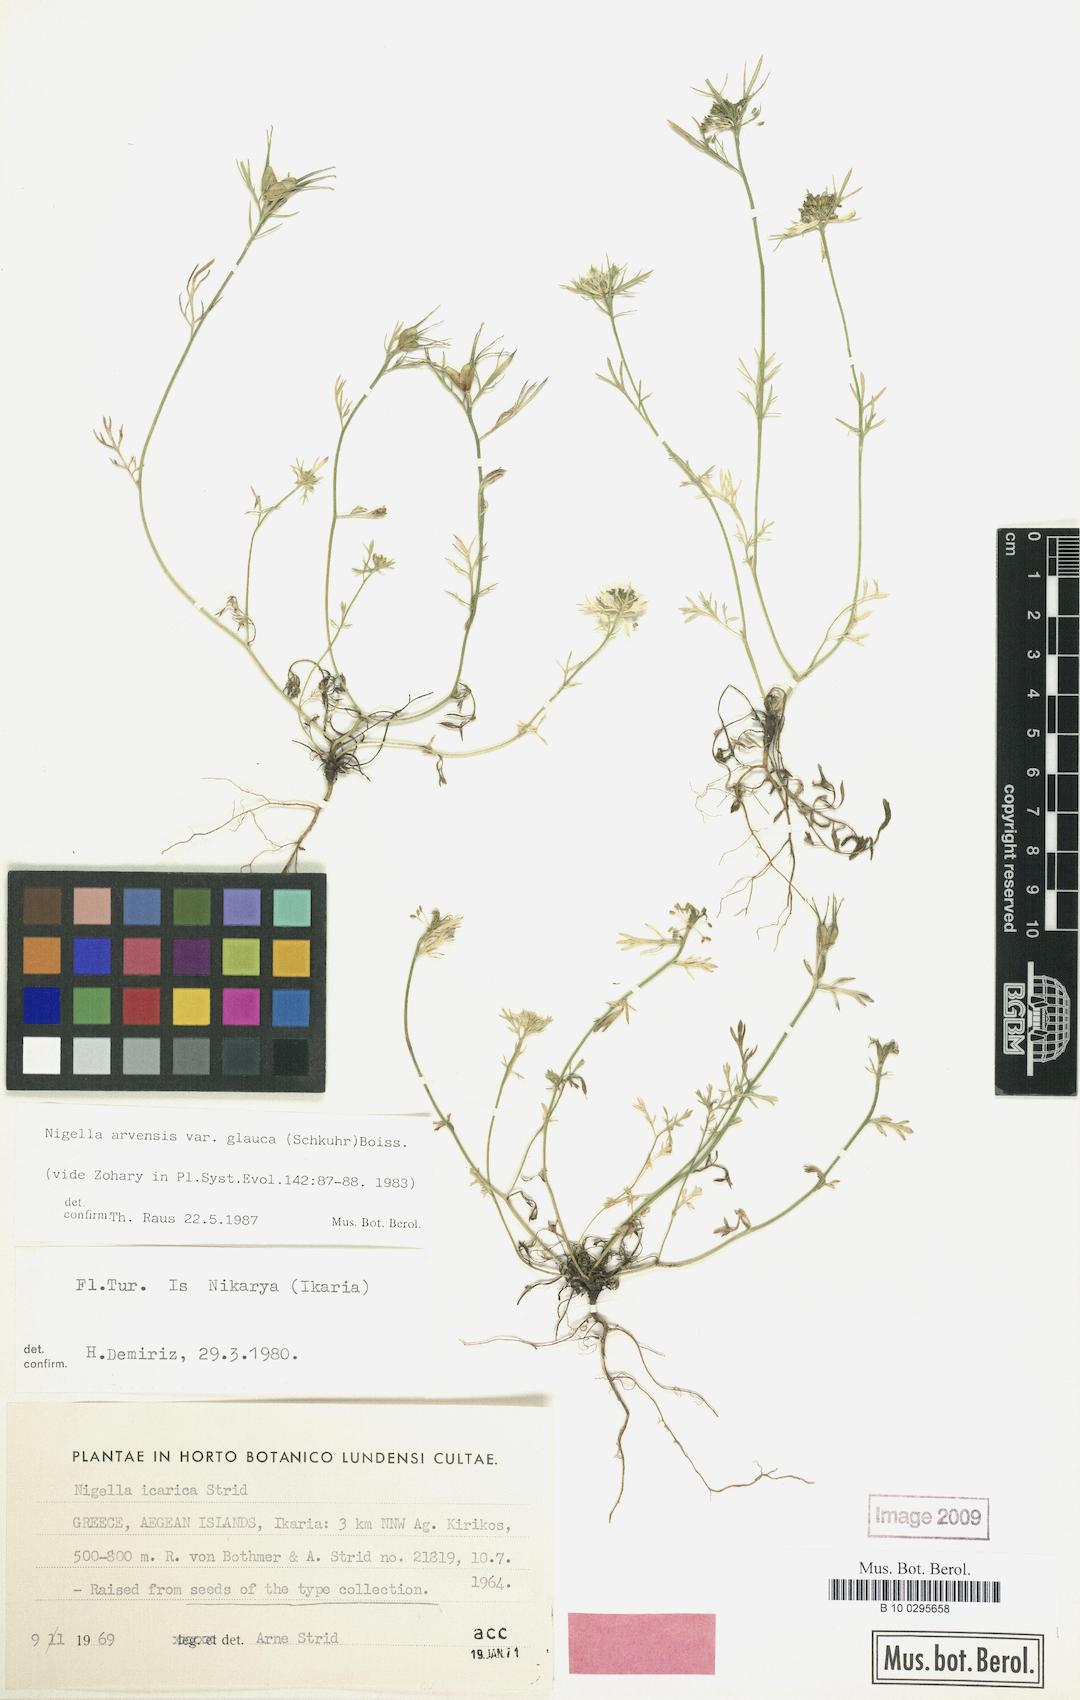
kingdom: Plantae
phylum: Tracheophyta
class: Magnoliopsida
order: Ranunculales
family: Ranunculaceae
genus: Nigella
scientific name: Nigella arvensis
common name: Wild fennel-flower
